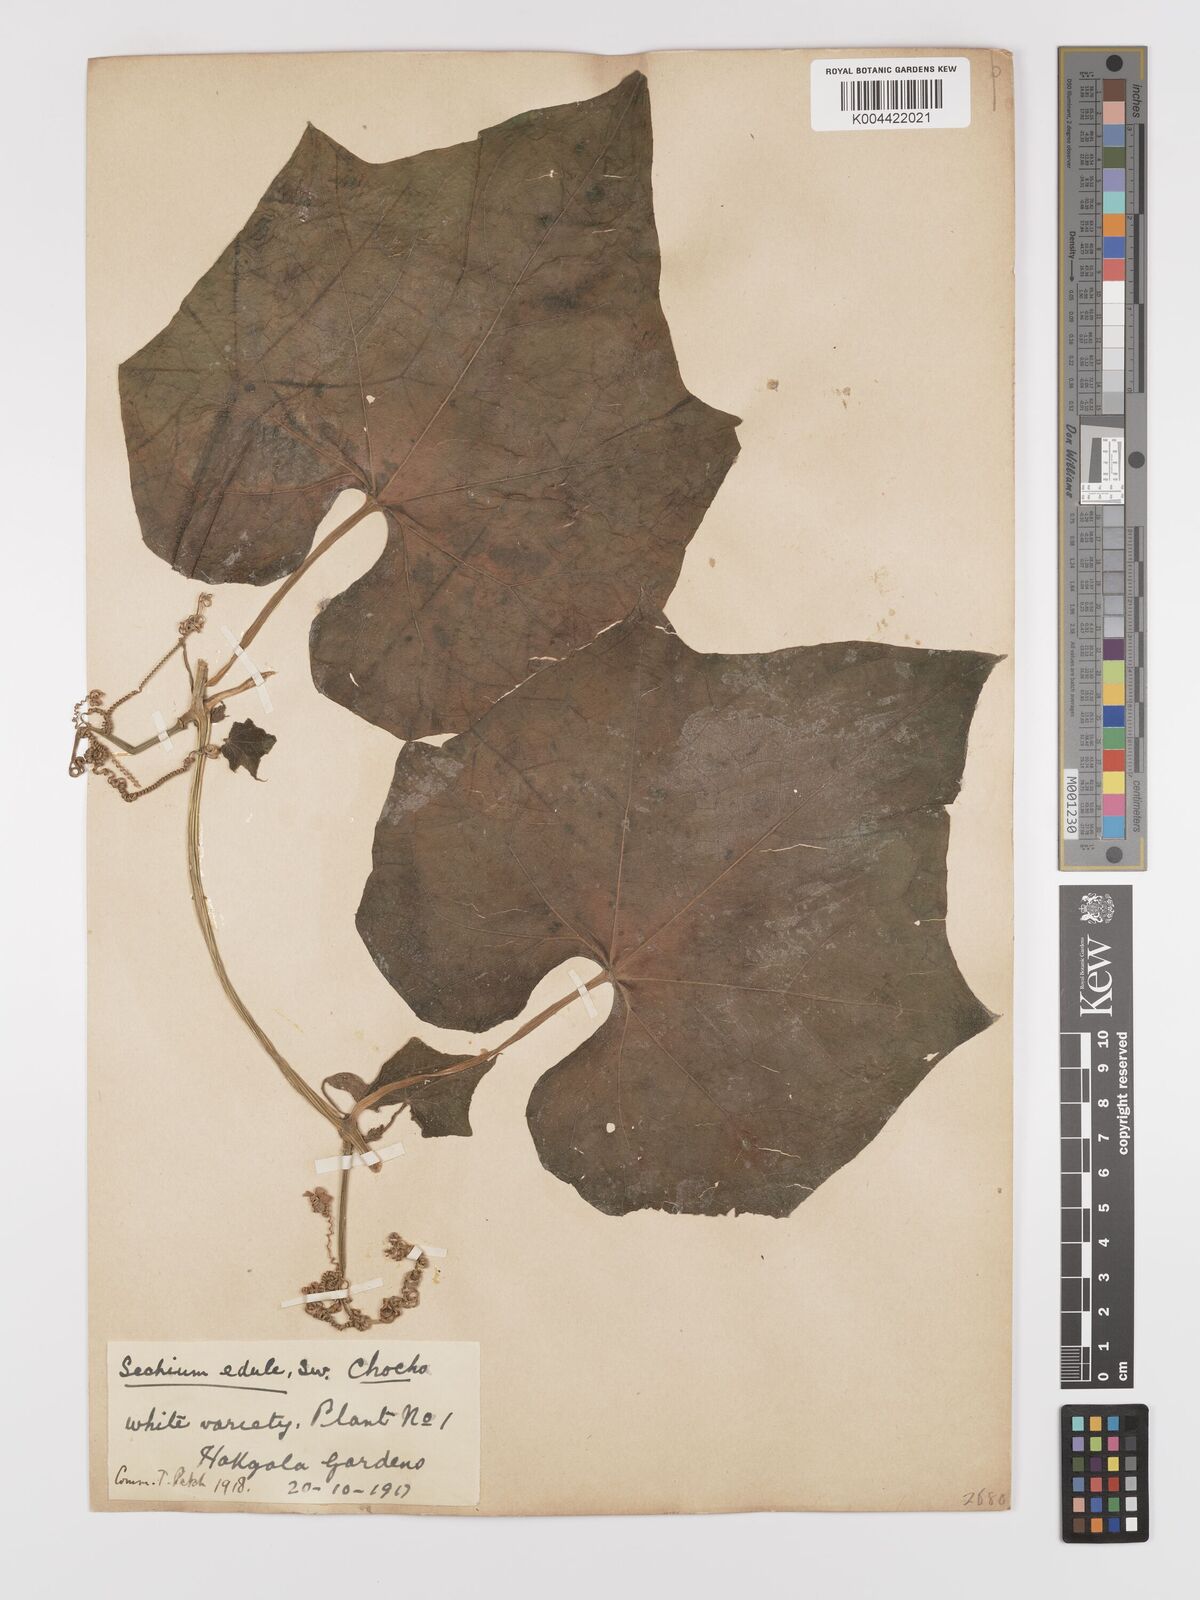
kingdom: Plantae
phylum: Tracheophyta
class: Magnoliopsida
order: Cucurbitales
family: Cucurbitaceae
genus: Sechium
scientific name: Sechium edule
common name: Chayote
